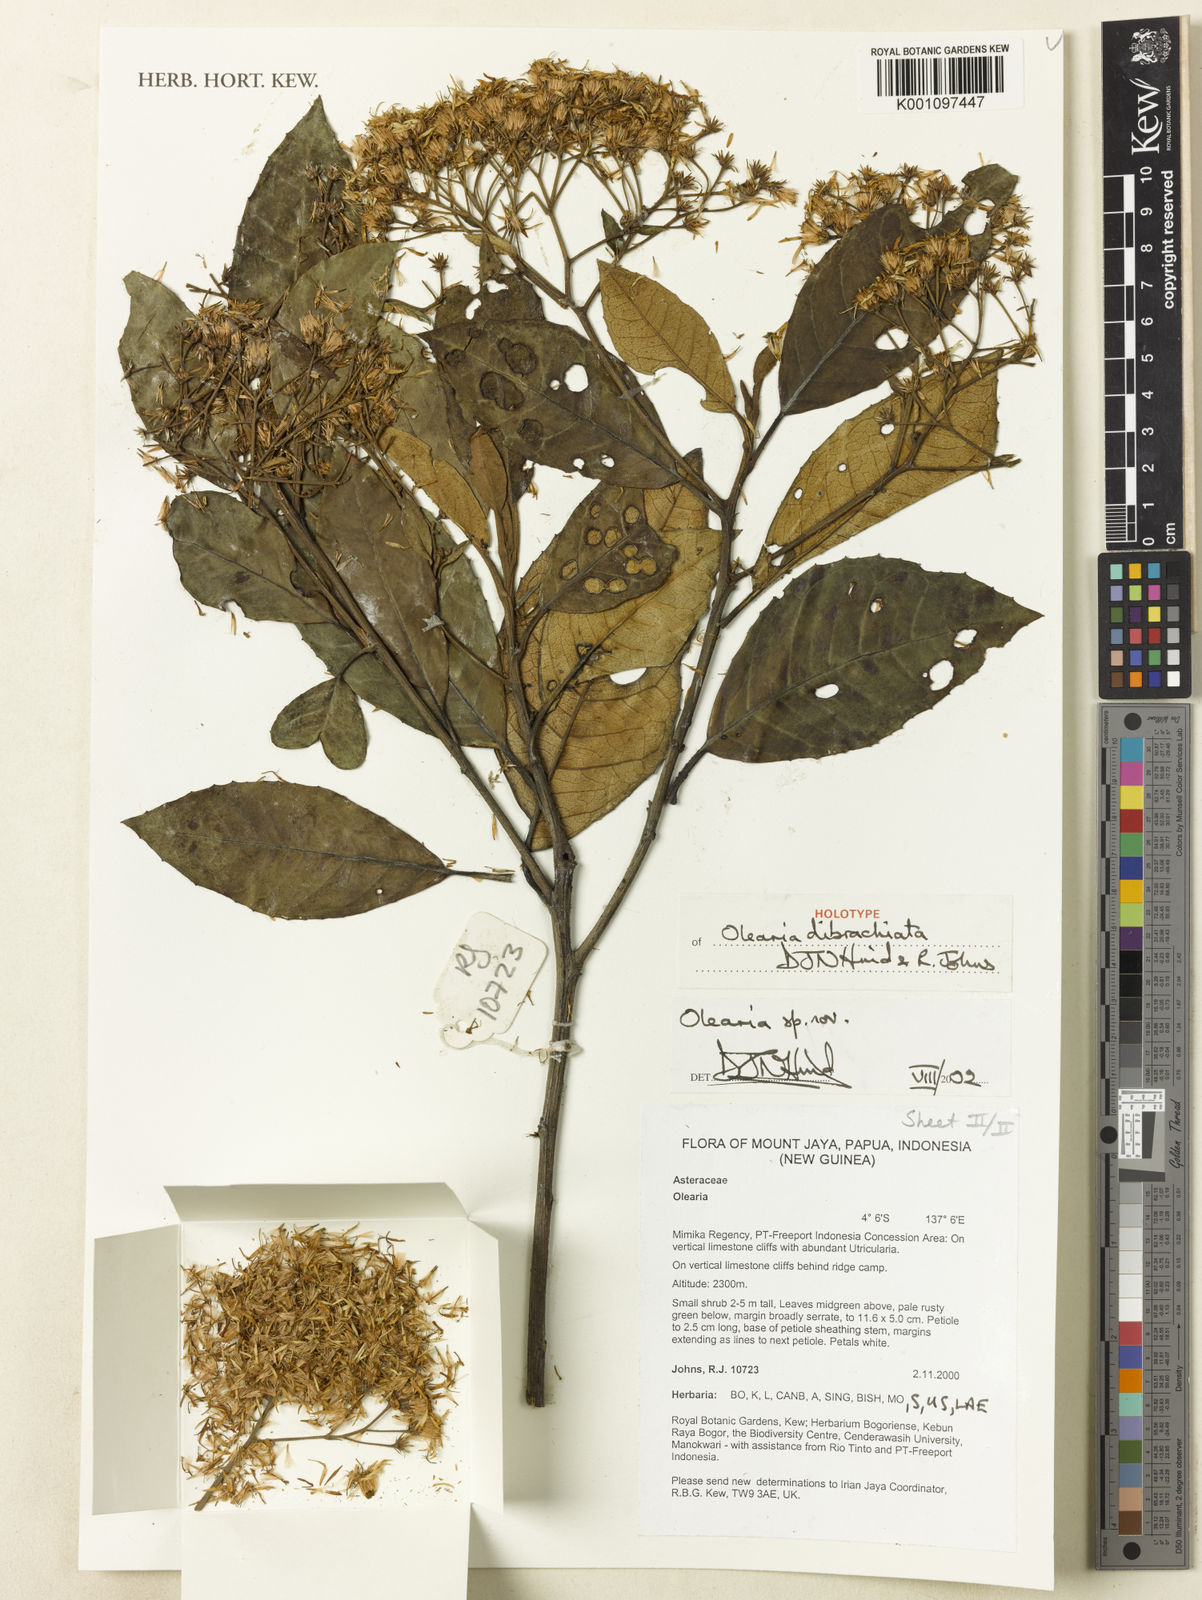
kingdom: Plantae
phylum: Tracheophyta
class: Magnoliopsida
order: Asterales
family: Asteraceae
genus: Olearia
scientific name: Olearia dibrachiata
